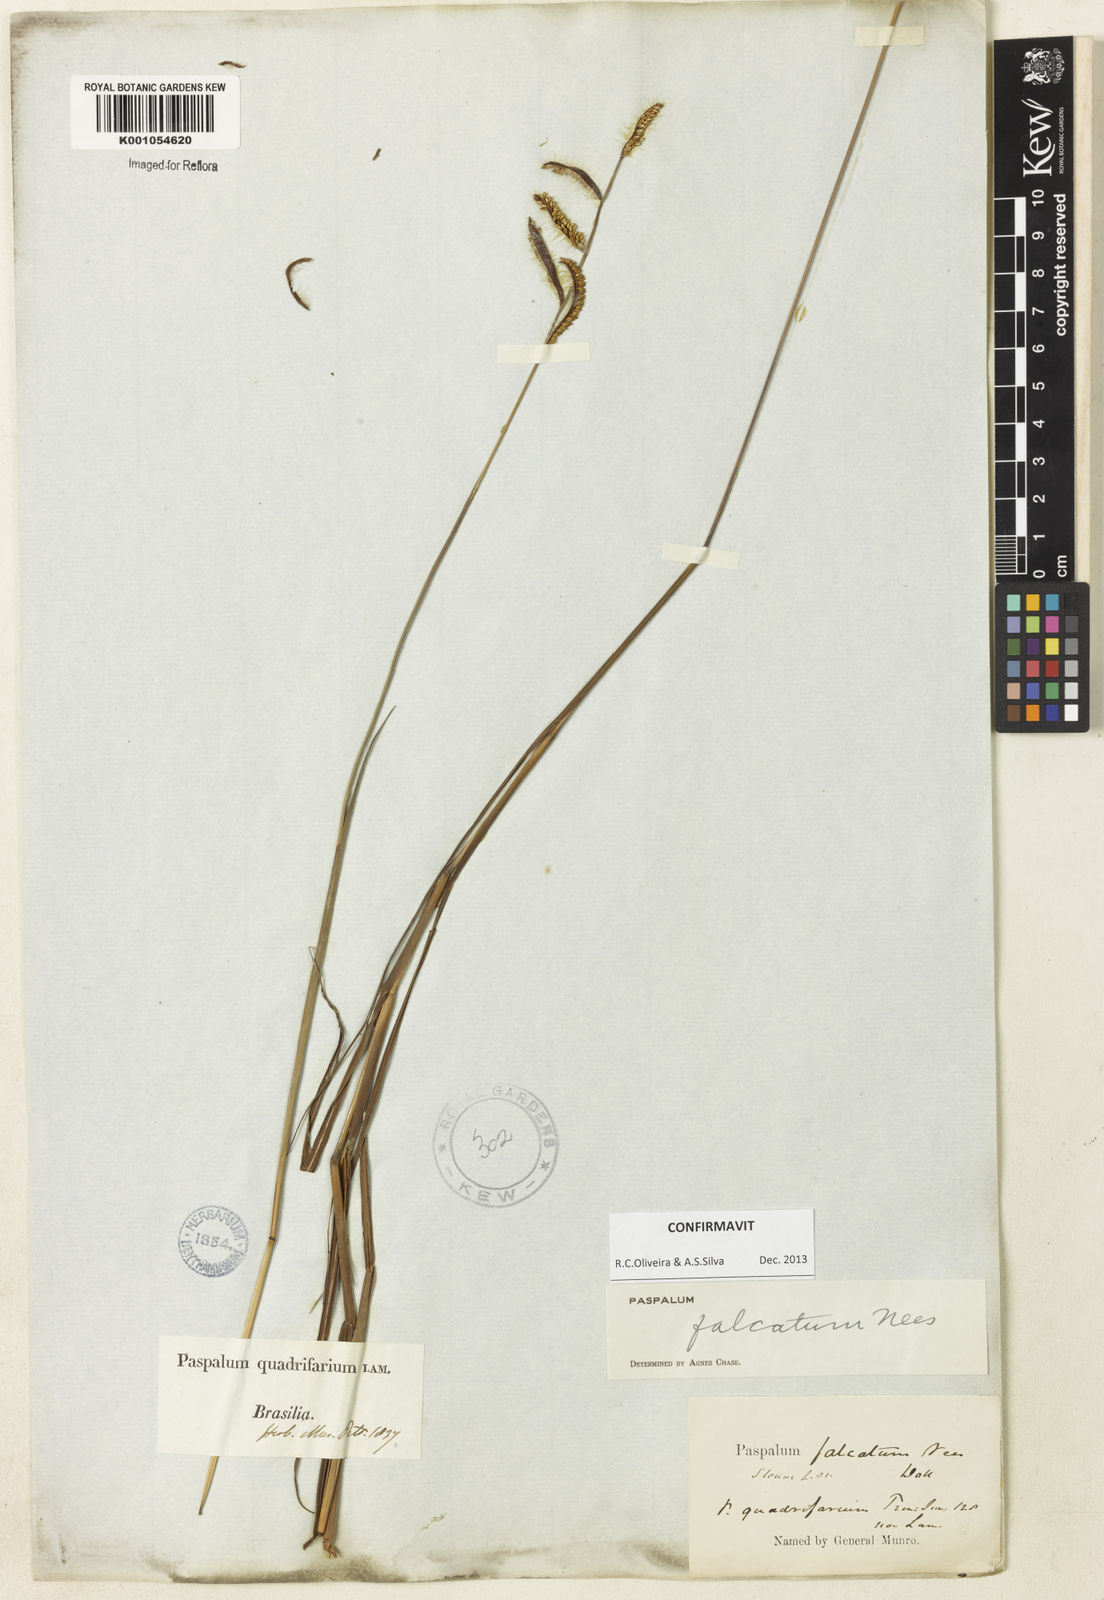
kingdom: Plantae
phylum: Tracheophyta
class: Liliopsida
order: Poales
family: Poaceae
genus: Paspalum
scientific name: Paspalum falcatum
